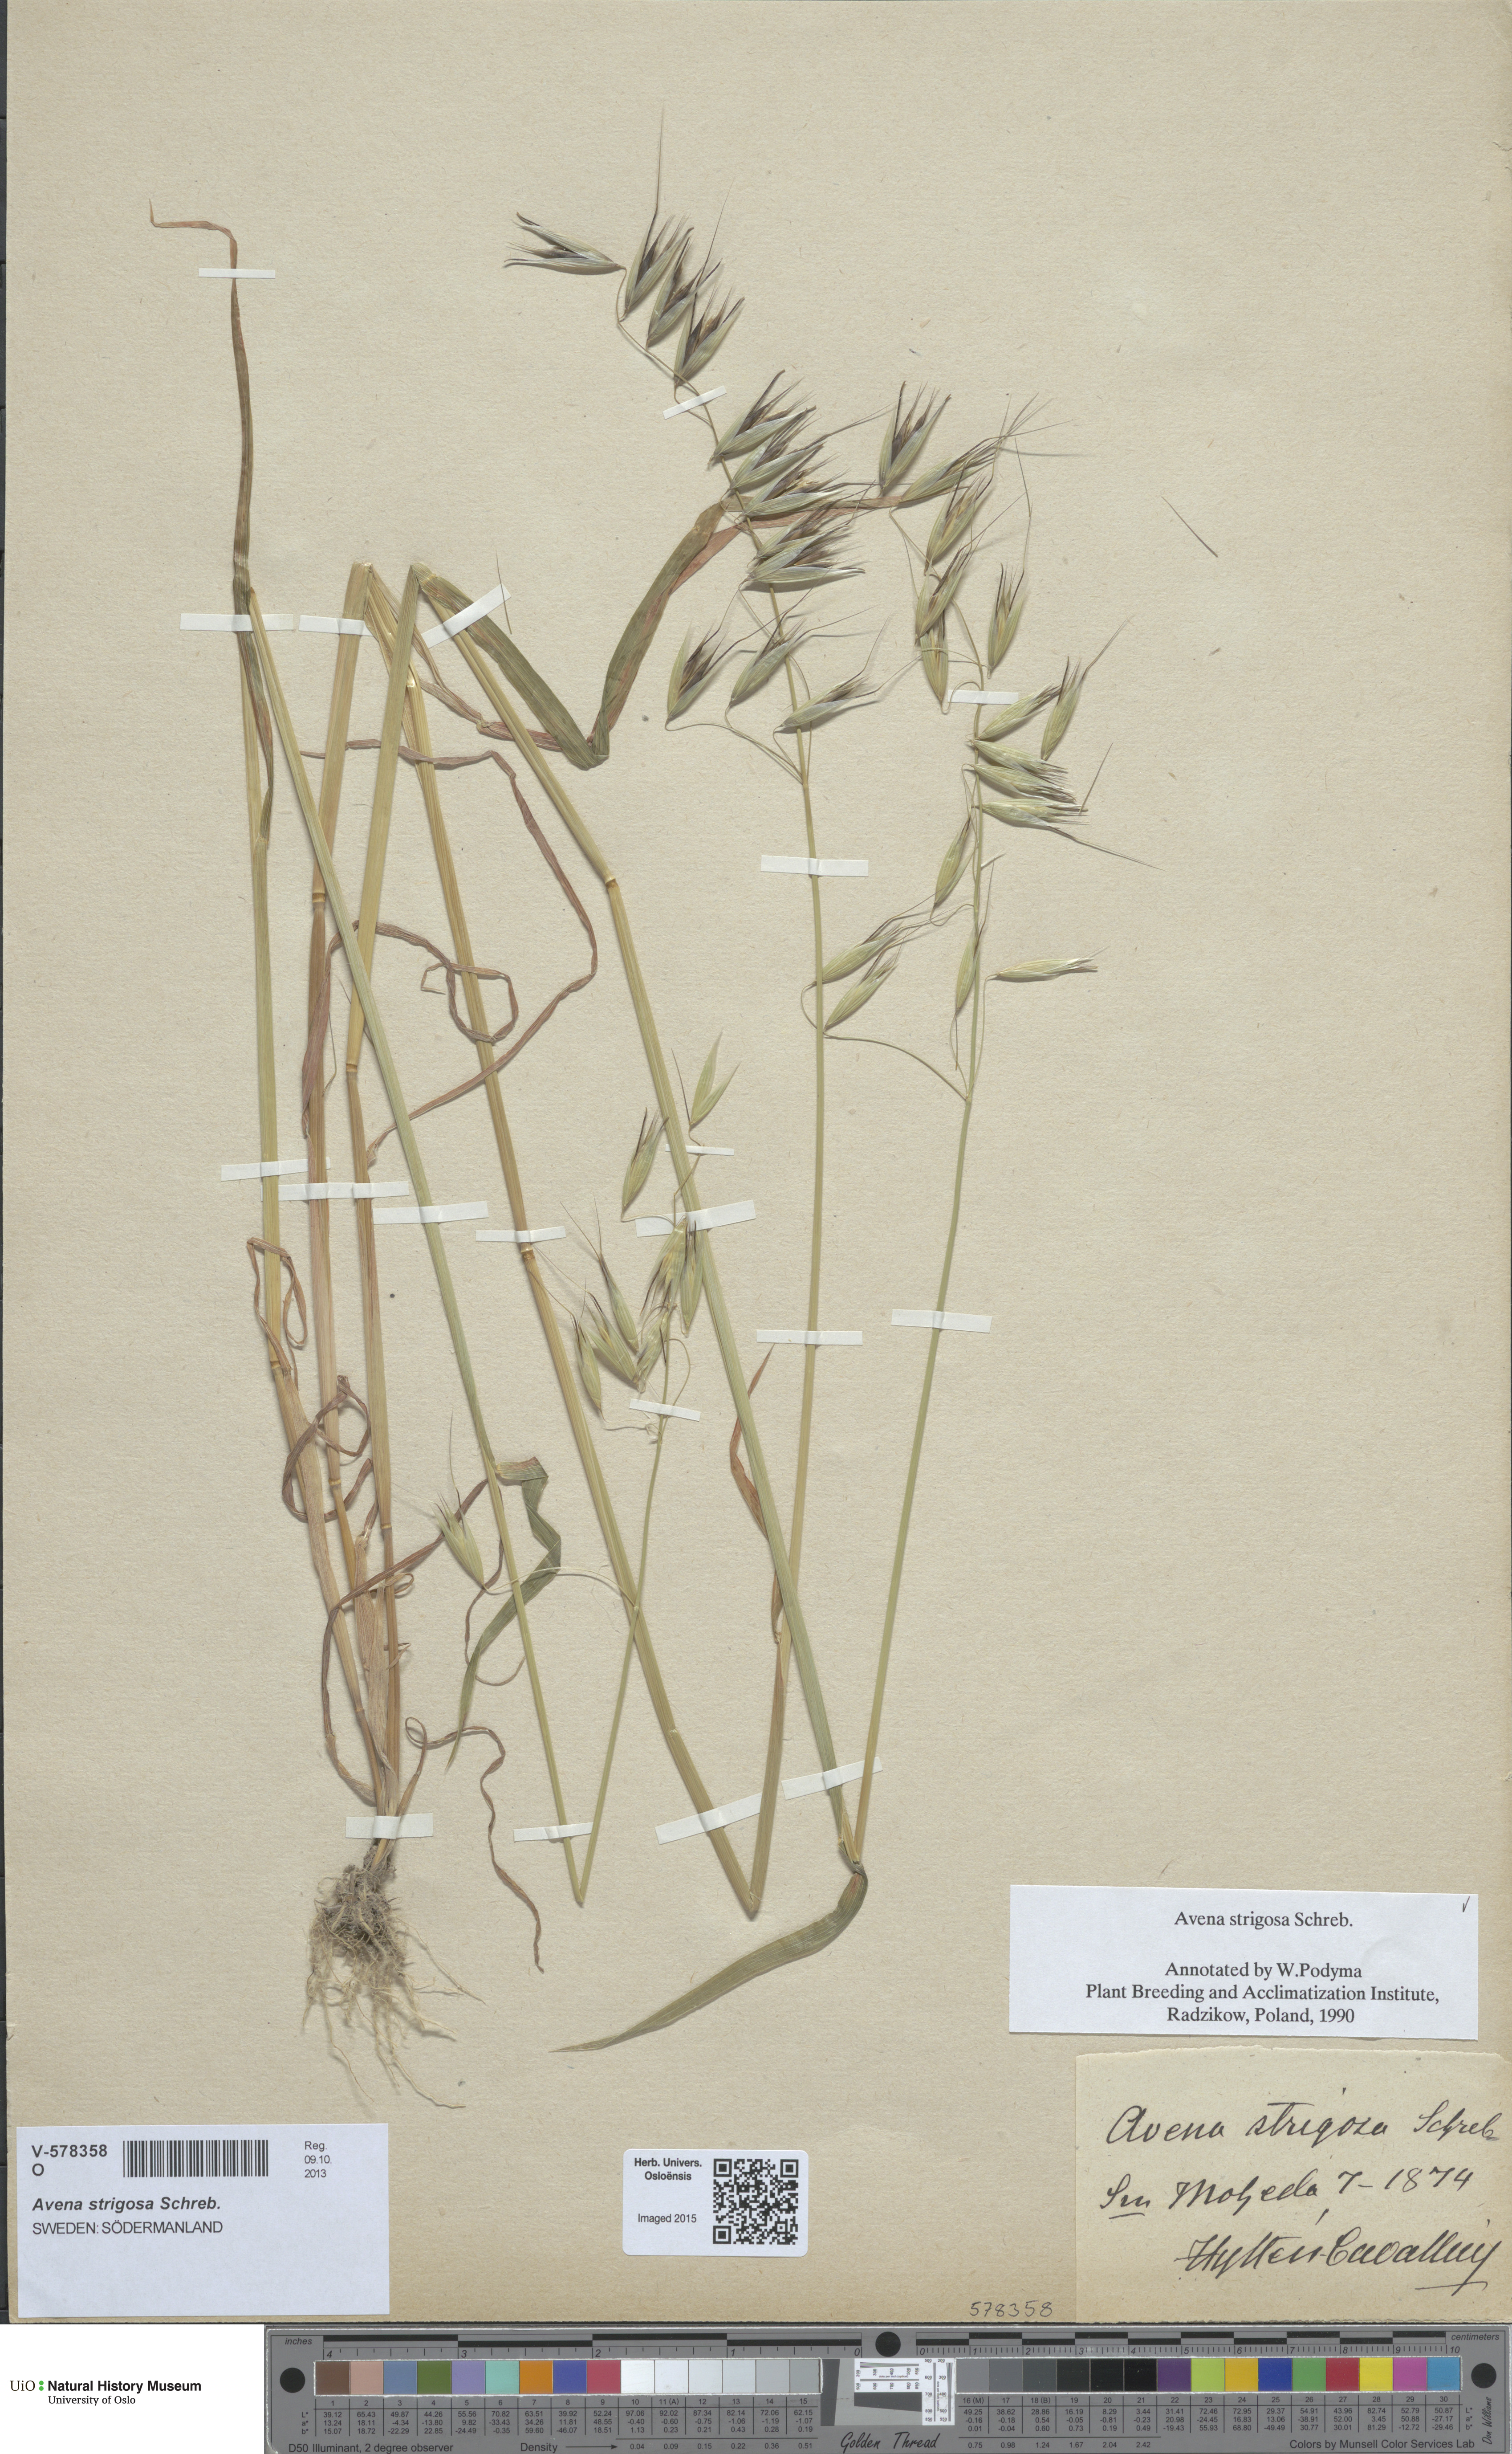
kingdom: Plantae
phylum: Tracheophyta
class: Liliopsida
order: Poales
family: Poaceae
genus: Avena
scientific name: Avena strigosa
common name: Bristle oat
